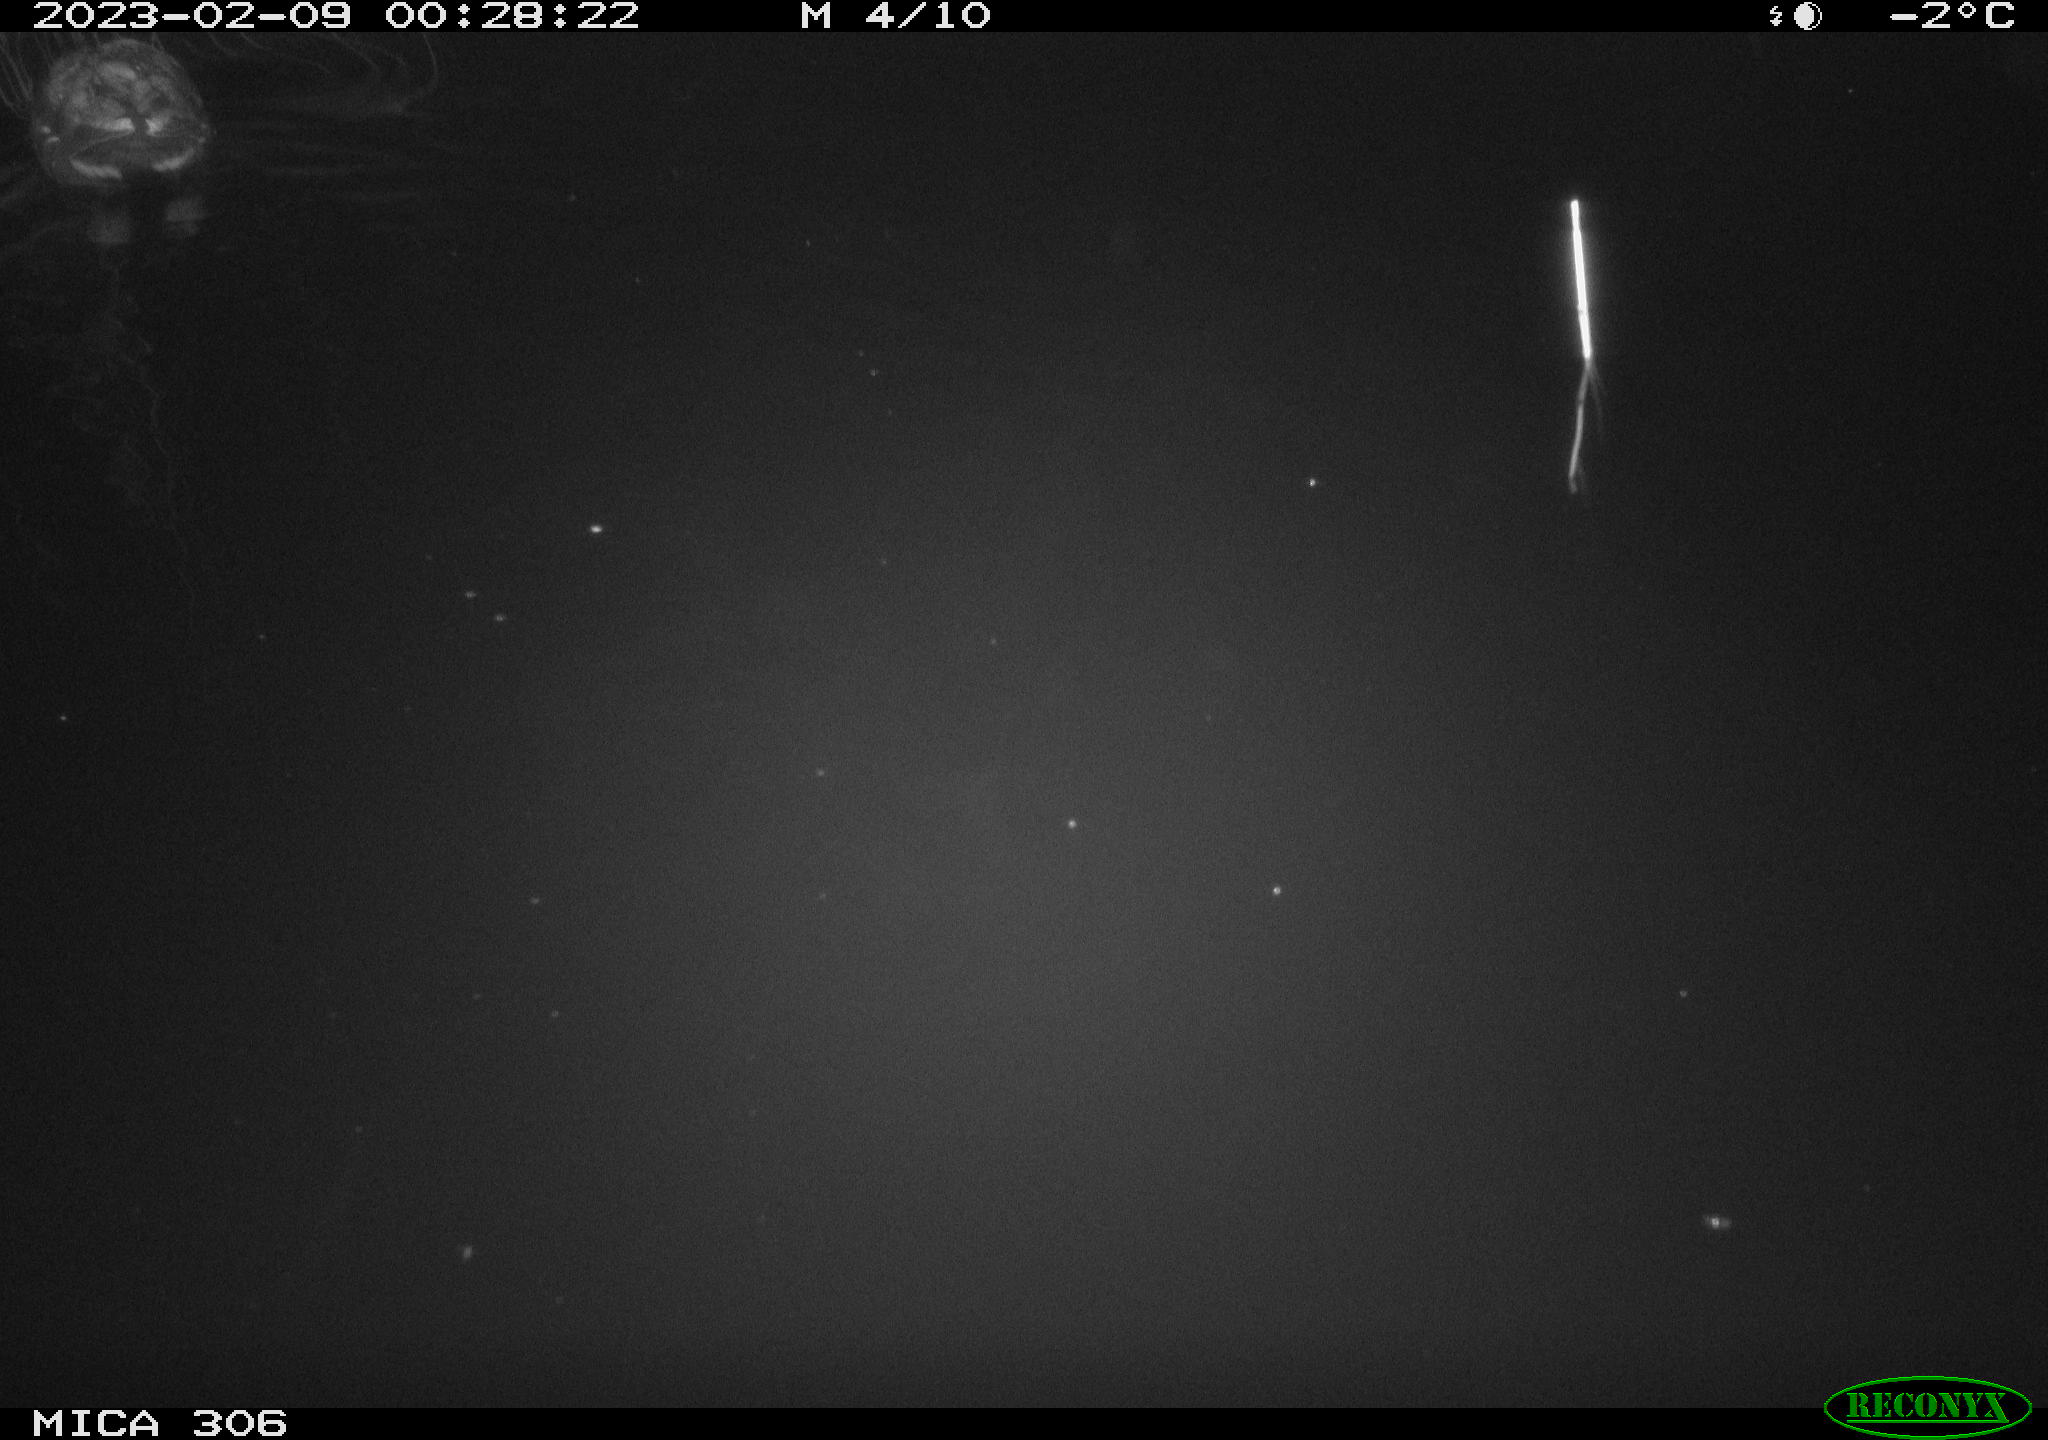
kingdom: Animalia
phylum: Chordata
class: Aves
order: Anseriformes
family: Anatidae
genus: Anas
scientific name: Anas
